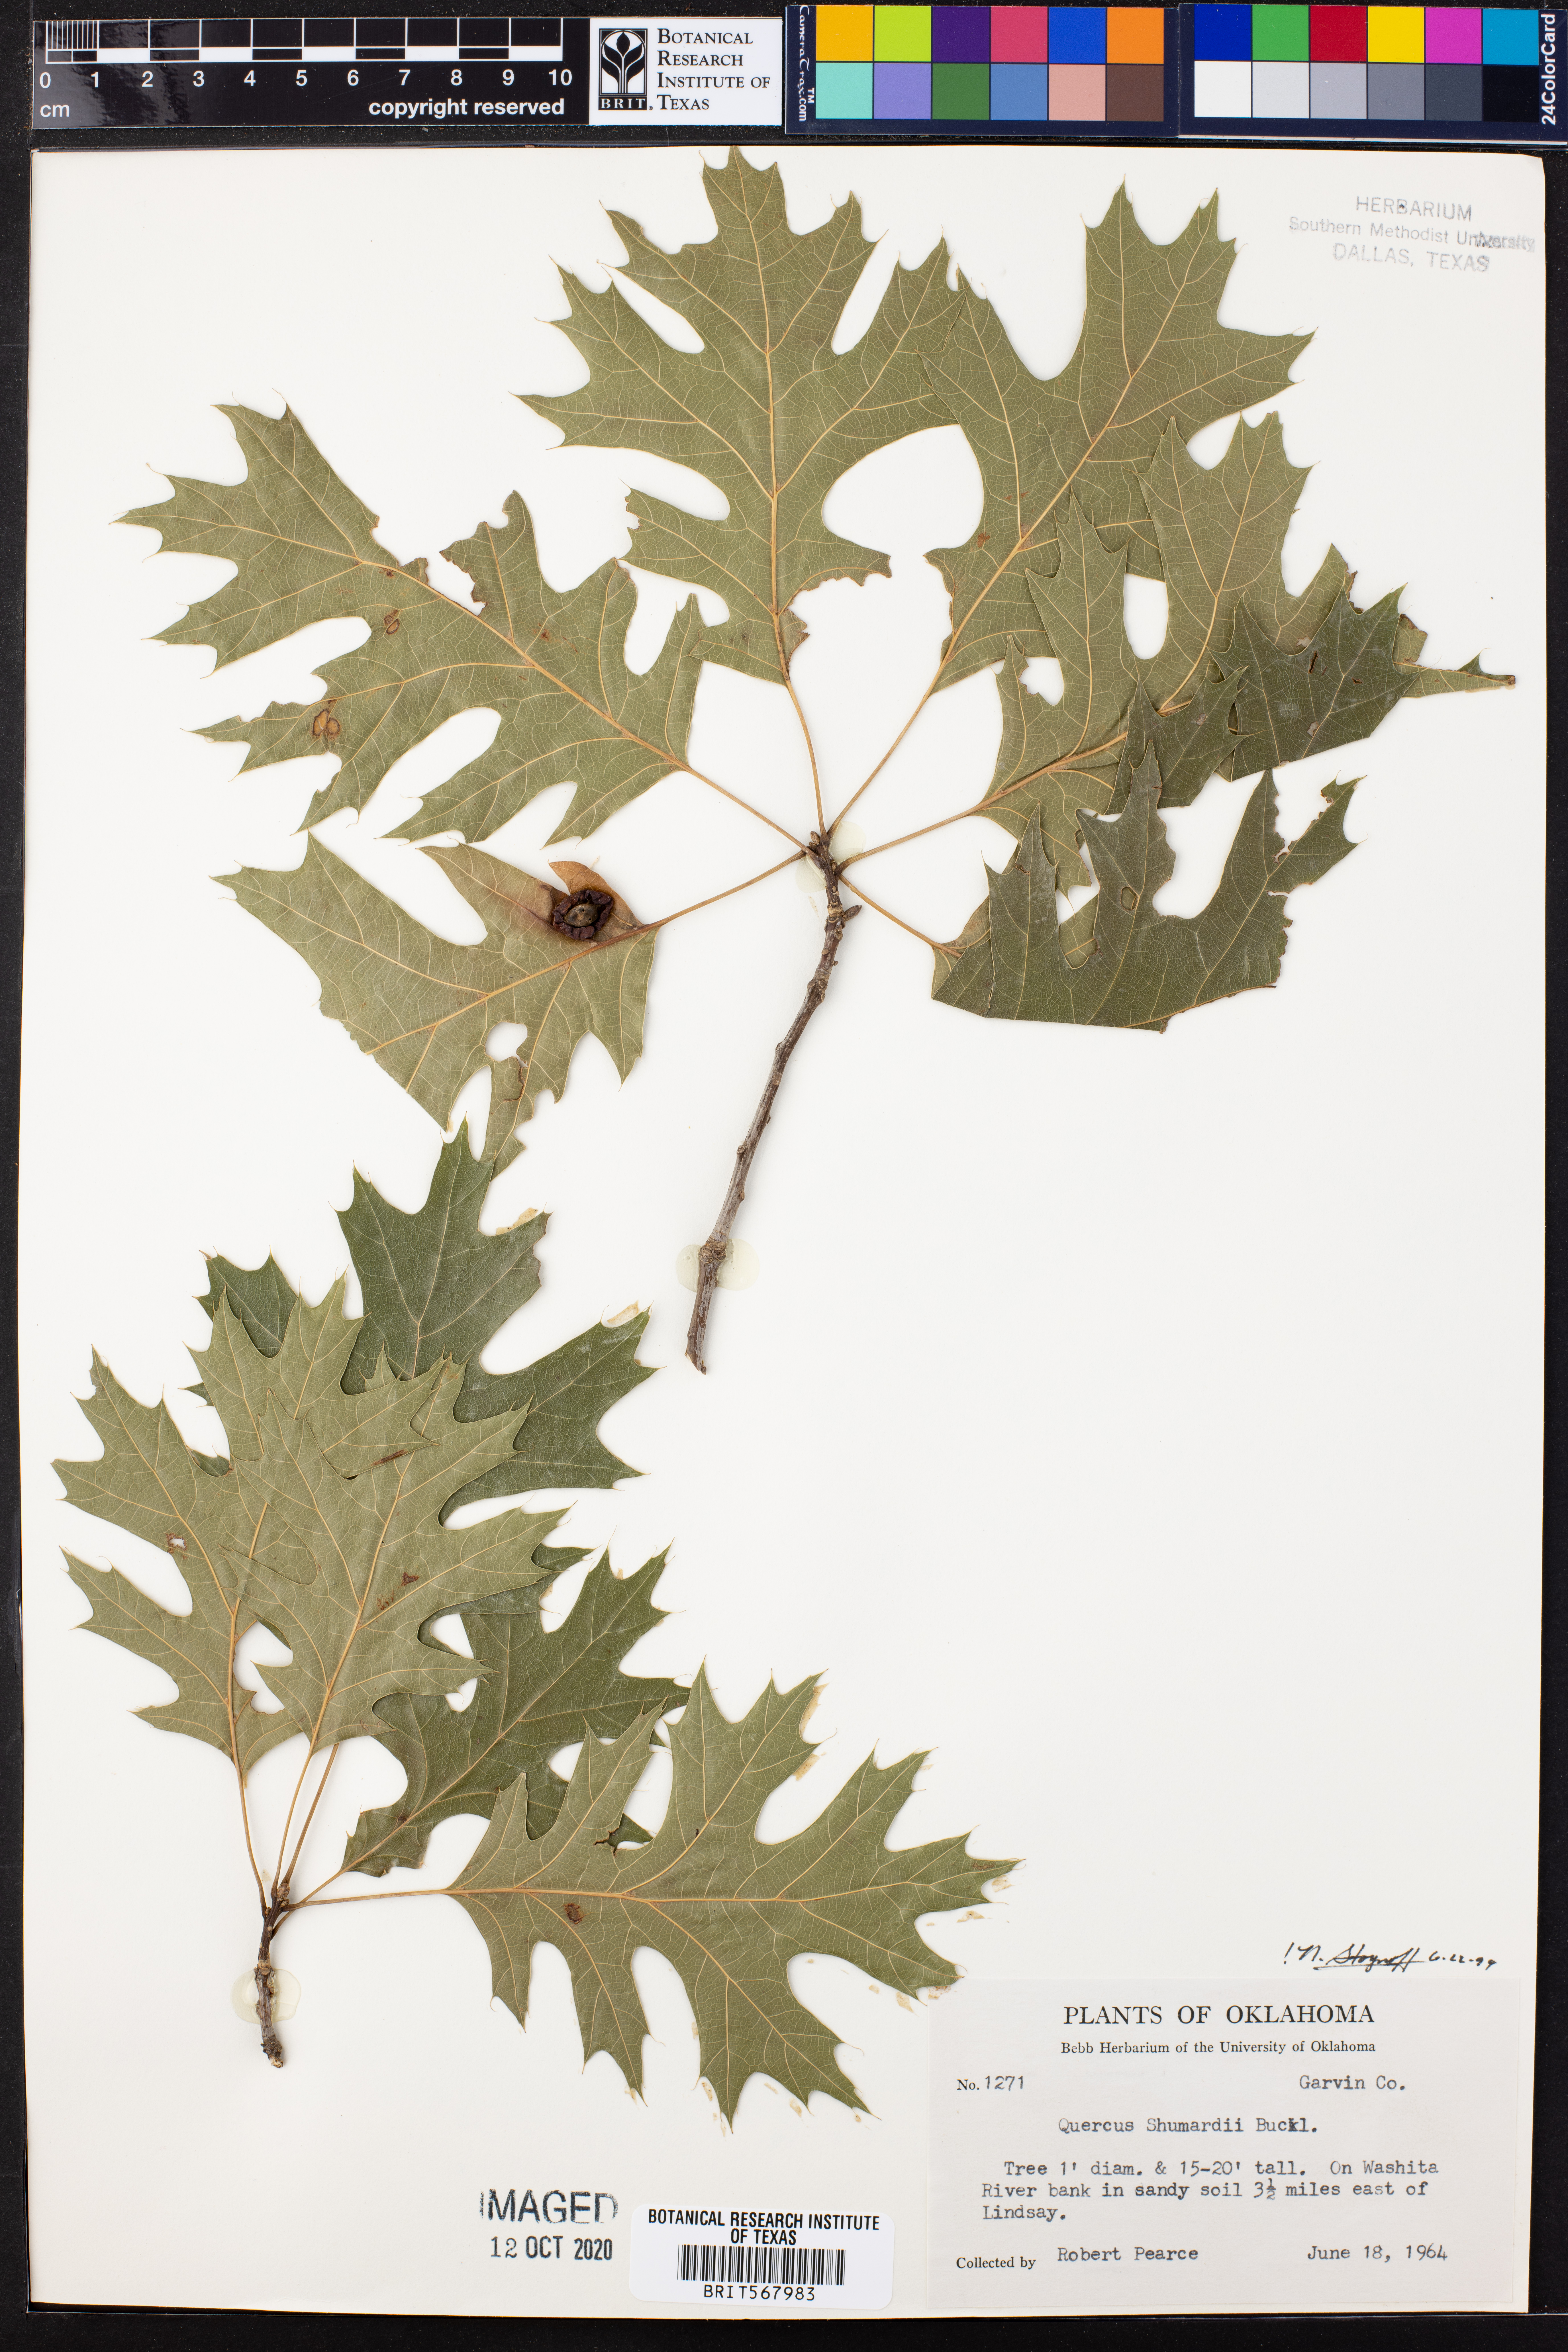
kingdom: Plantae
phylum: Tracheophyta
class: Magnoliopsida
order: Fagales
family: Fagaceae
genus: Quercus
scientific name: Quercus shumardii
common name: Shumard oak
